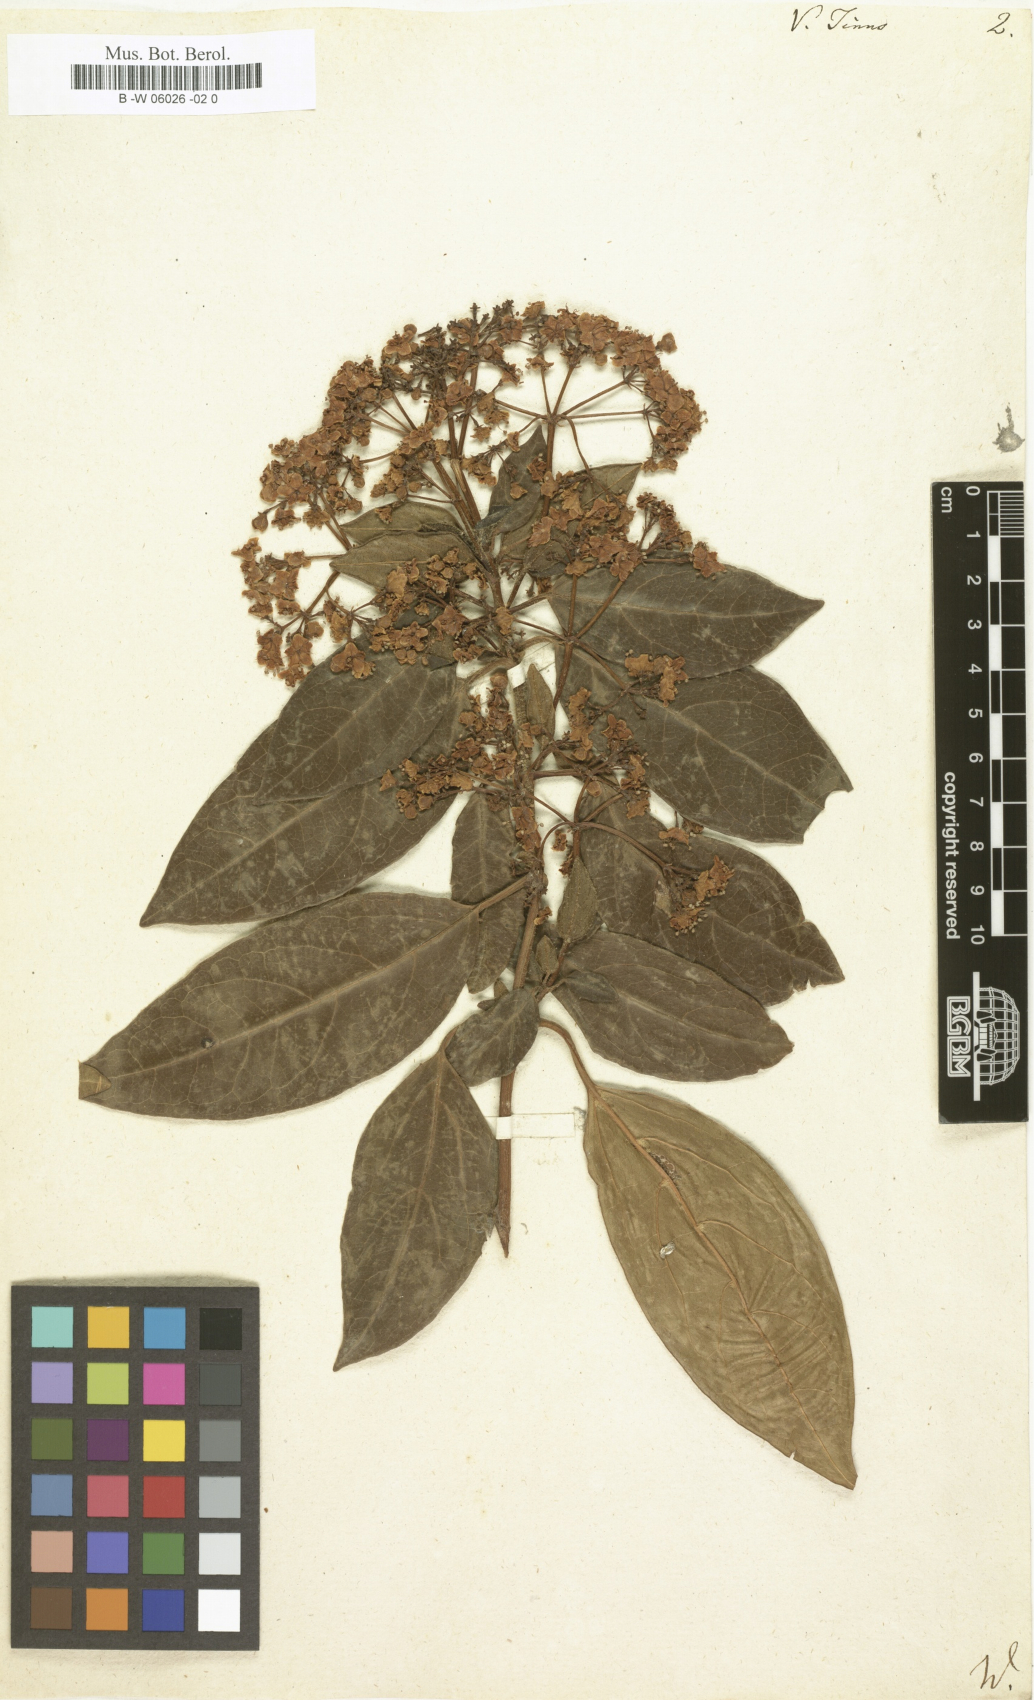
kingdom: Plantae
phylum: Tracheophyta
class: Magnoliopsida
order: Dipsacales
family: Viburnaceae
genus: Viburnum
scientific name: Viburnum tinus
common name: Laurustinus
